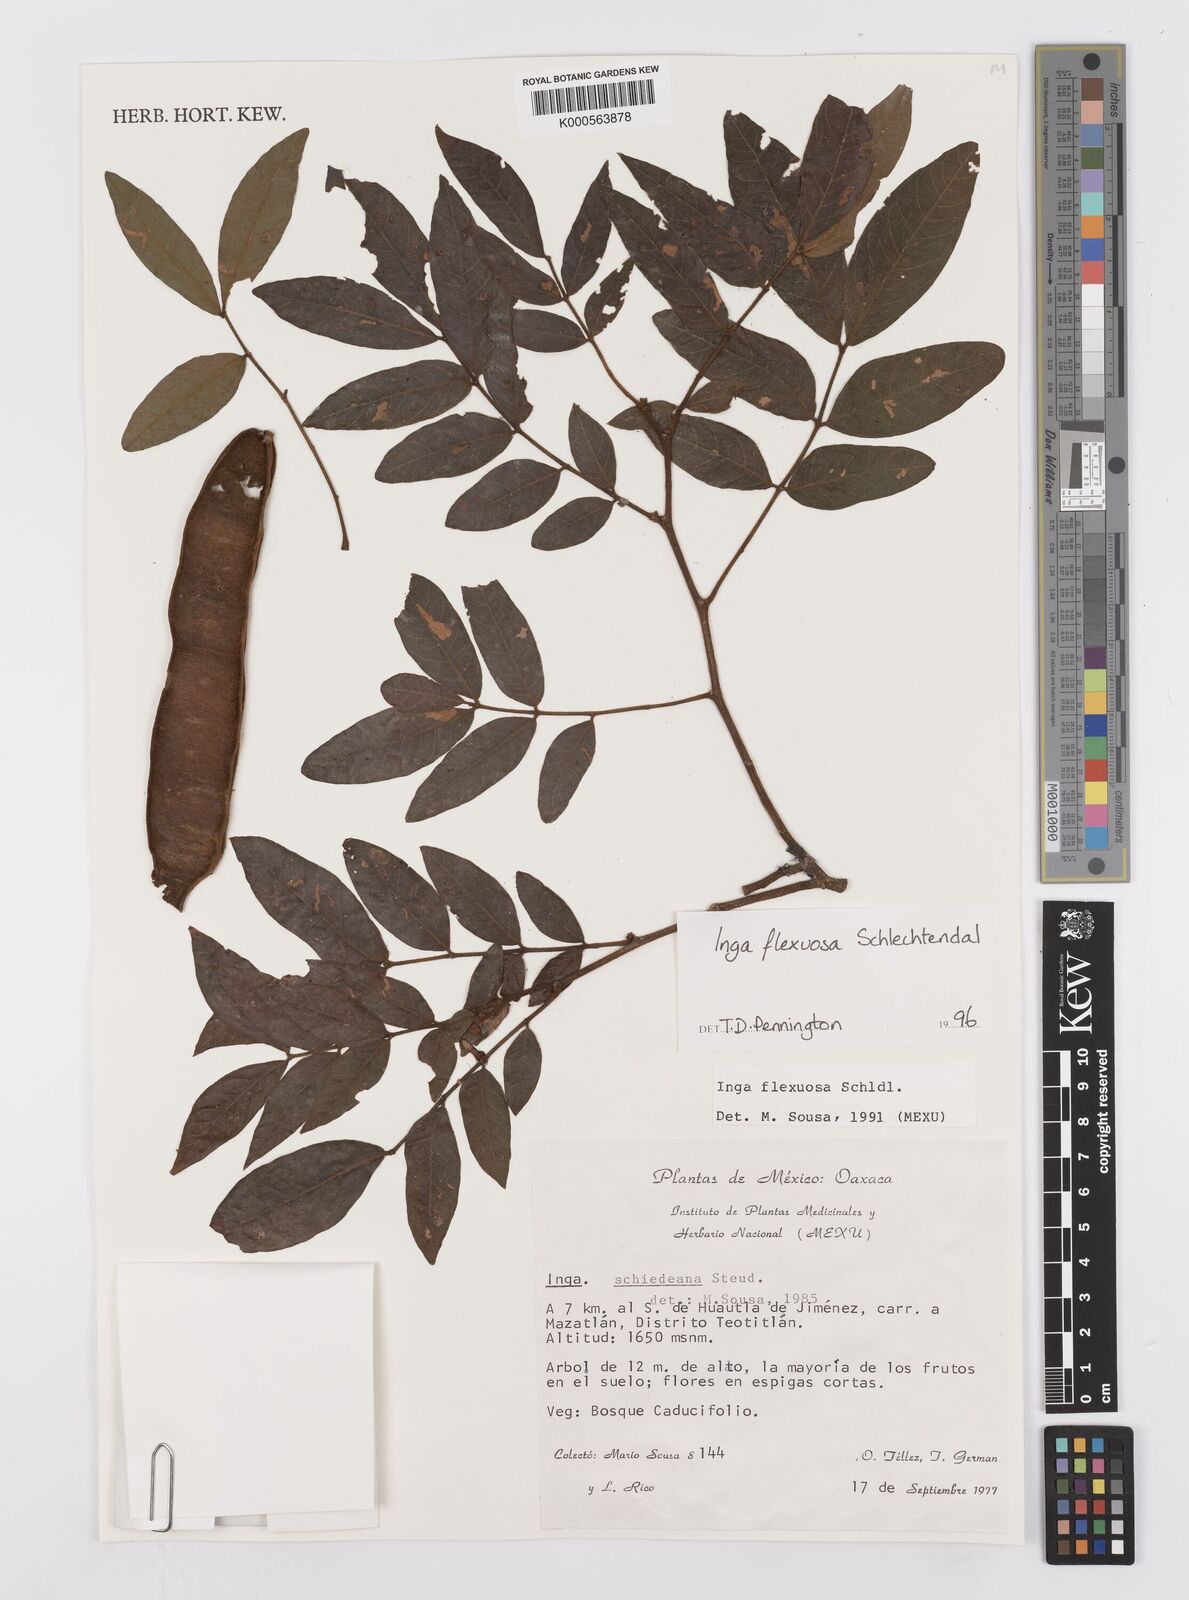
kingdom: Plantae
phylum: Tracheophyta
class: Magnoliopsida
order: Fabales
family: Fabaceae
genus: Inga
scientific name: Inga flexuosa
